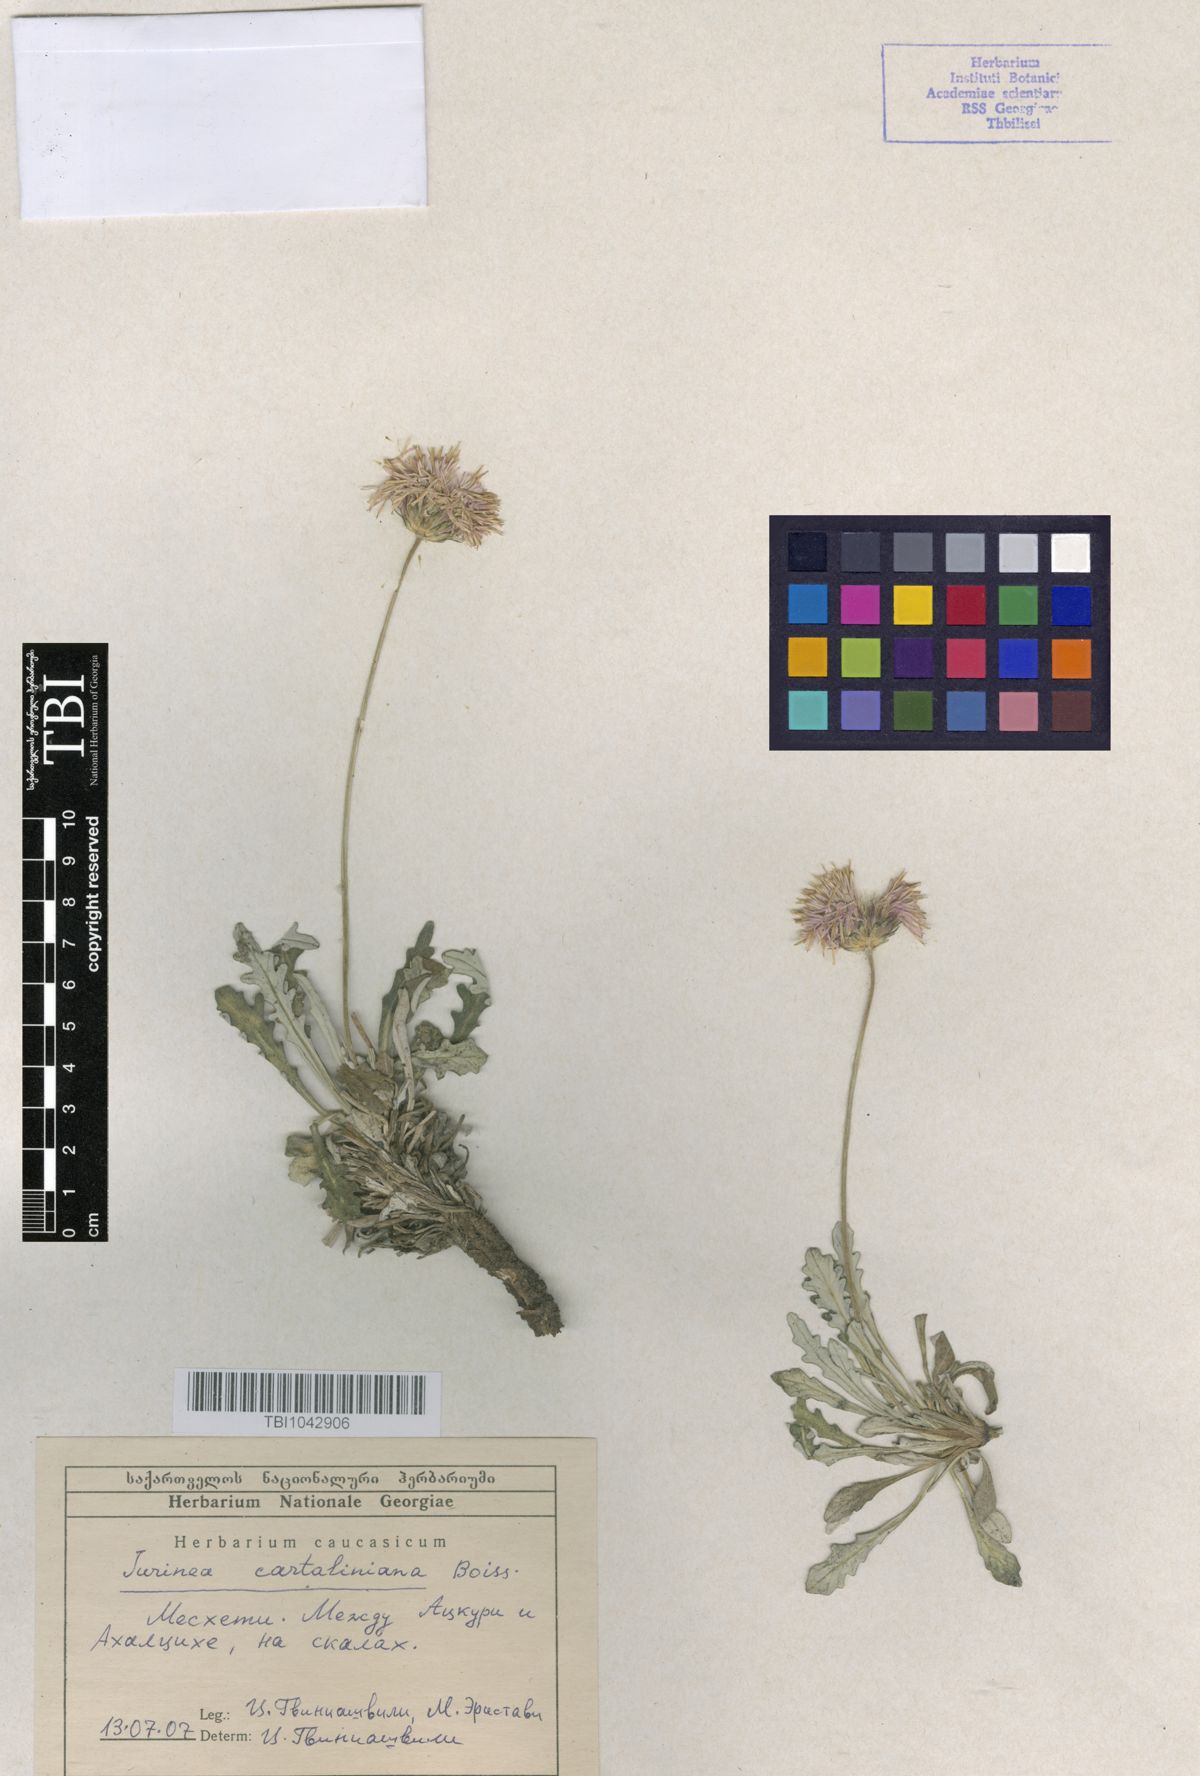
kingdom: Plantae
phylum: Tracheophyta
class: Magnoliopsida
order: Asterales
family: Asteraceae
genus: Jurinea
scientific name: Jurinea cartaliniana
